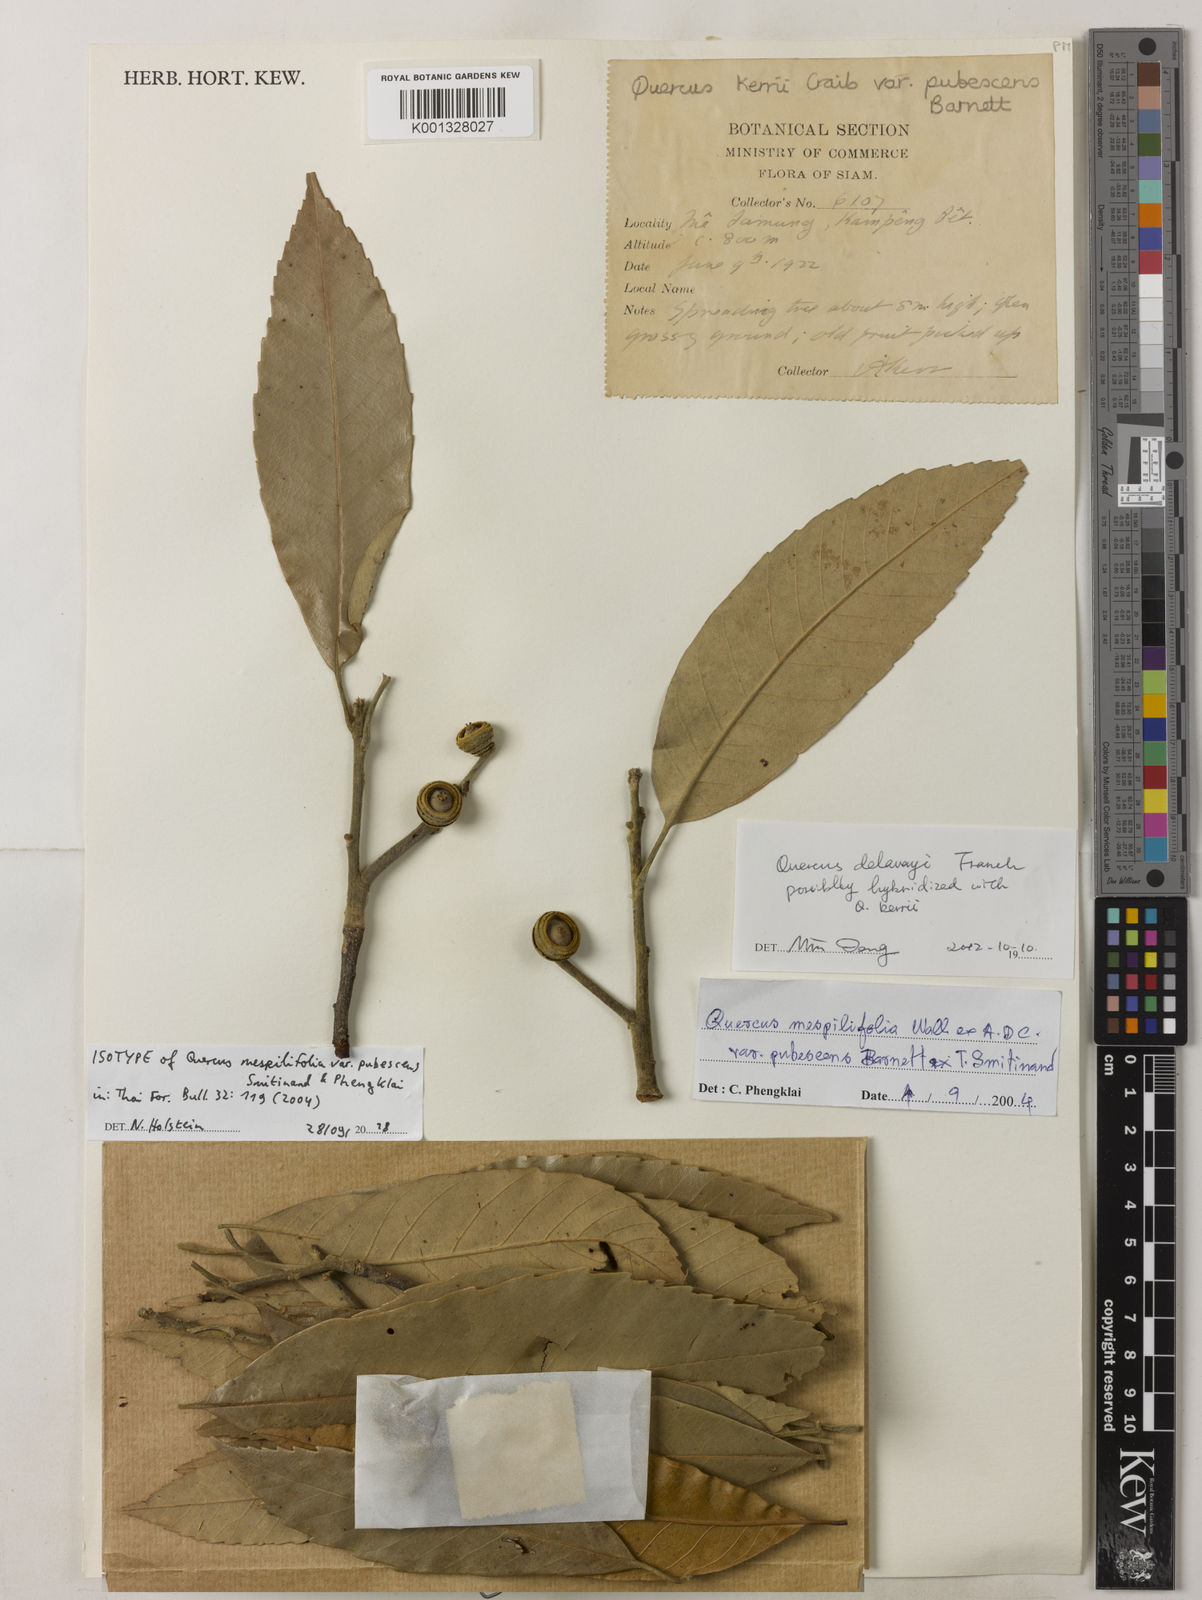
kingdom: Plantae
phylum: Tracheophyta
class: Magnoliopsida
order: Fagales
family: Fagaceae
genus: Quercus
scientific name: Quercus mespilifolia
